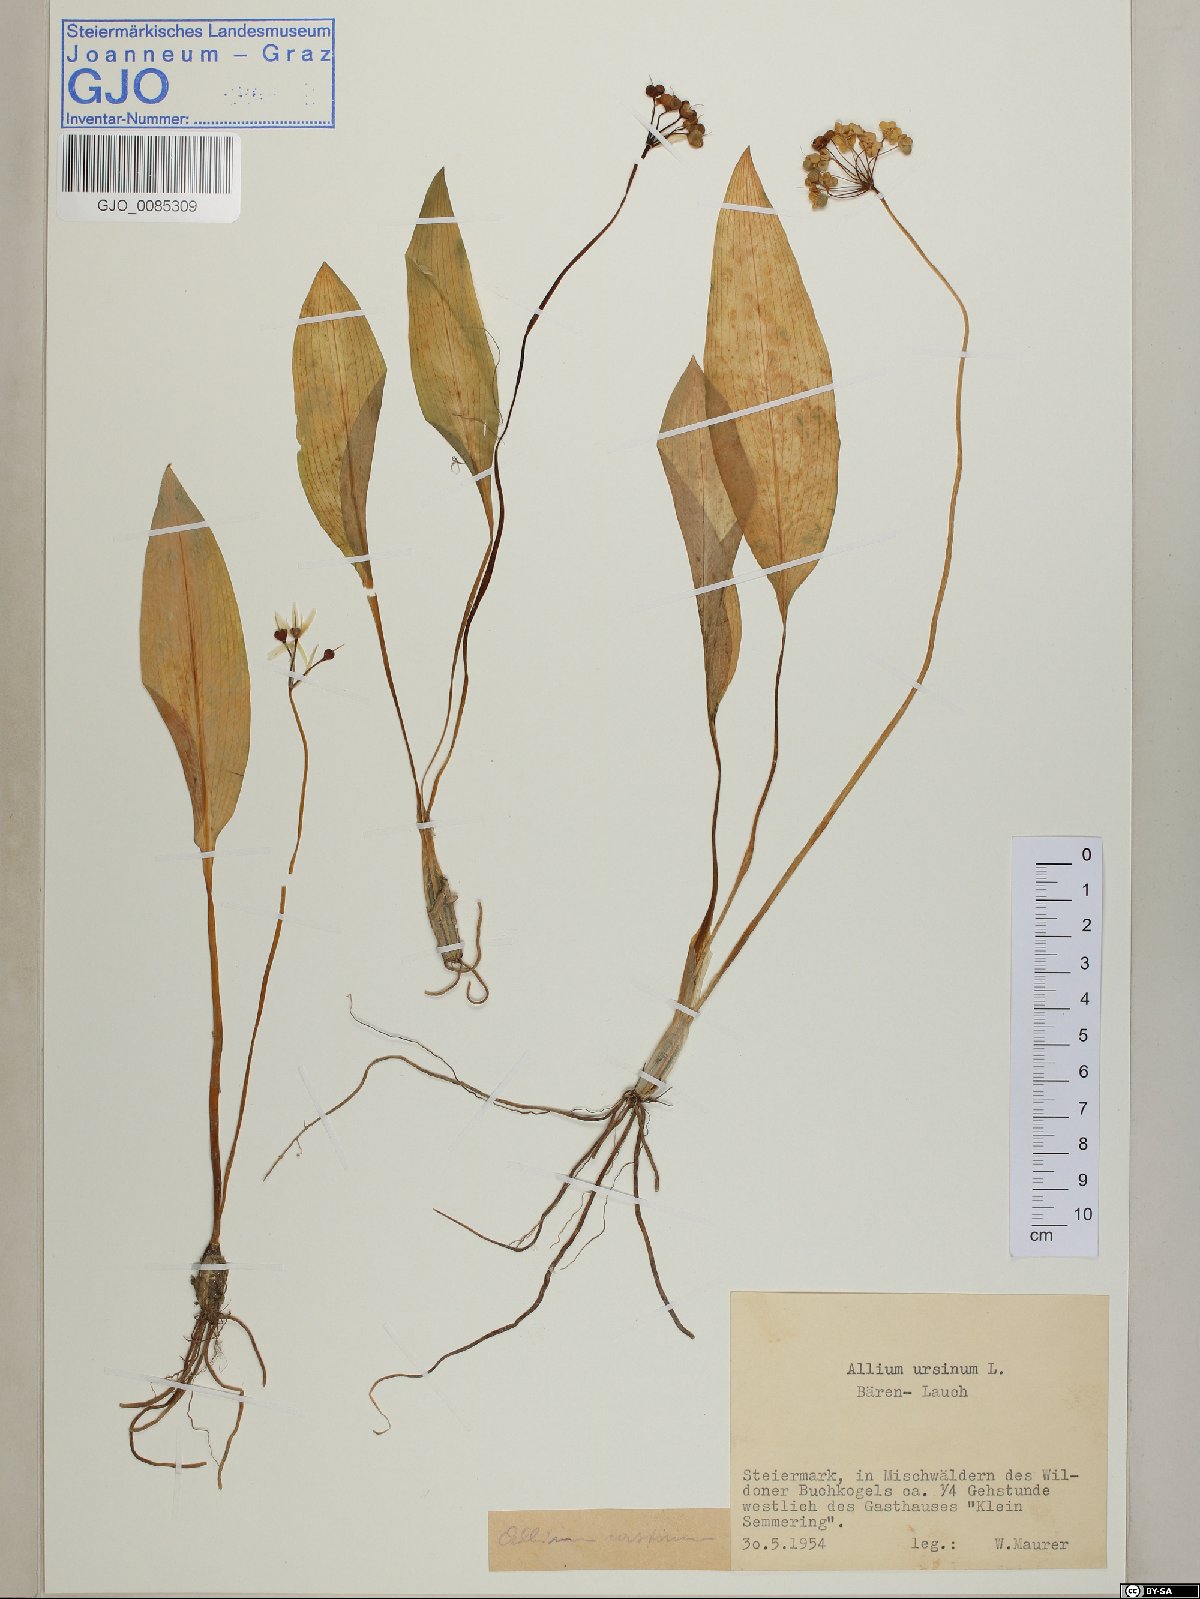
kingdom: Plantae
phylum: Tracheophyta
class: Liliopsida
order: Asparagales
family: Amaryllidaceae
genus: Allium
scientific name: Allium ursinum
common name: Ramsons
